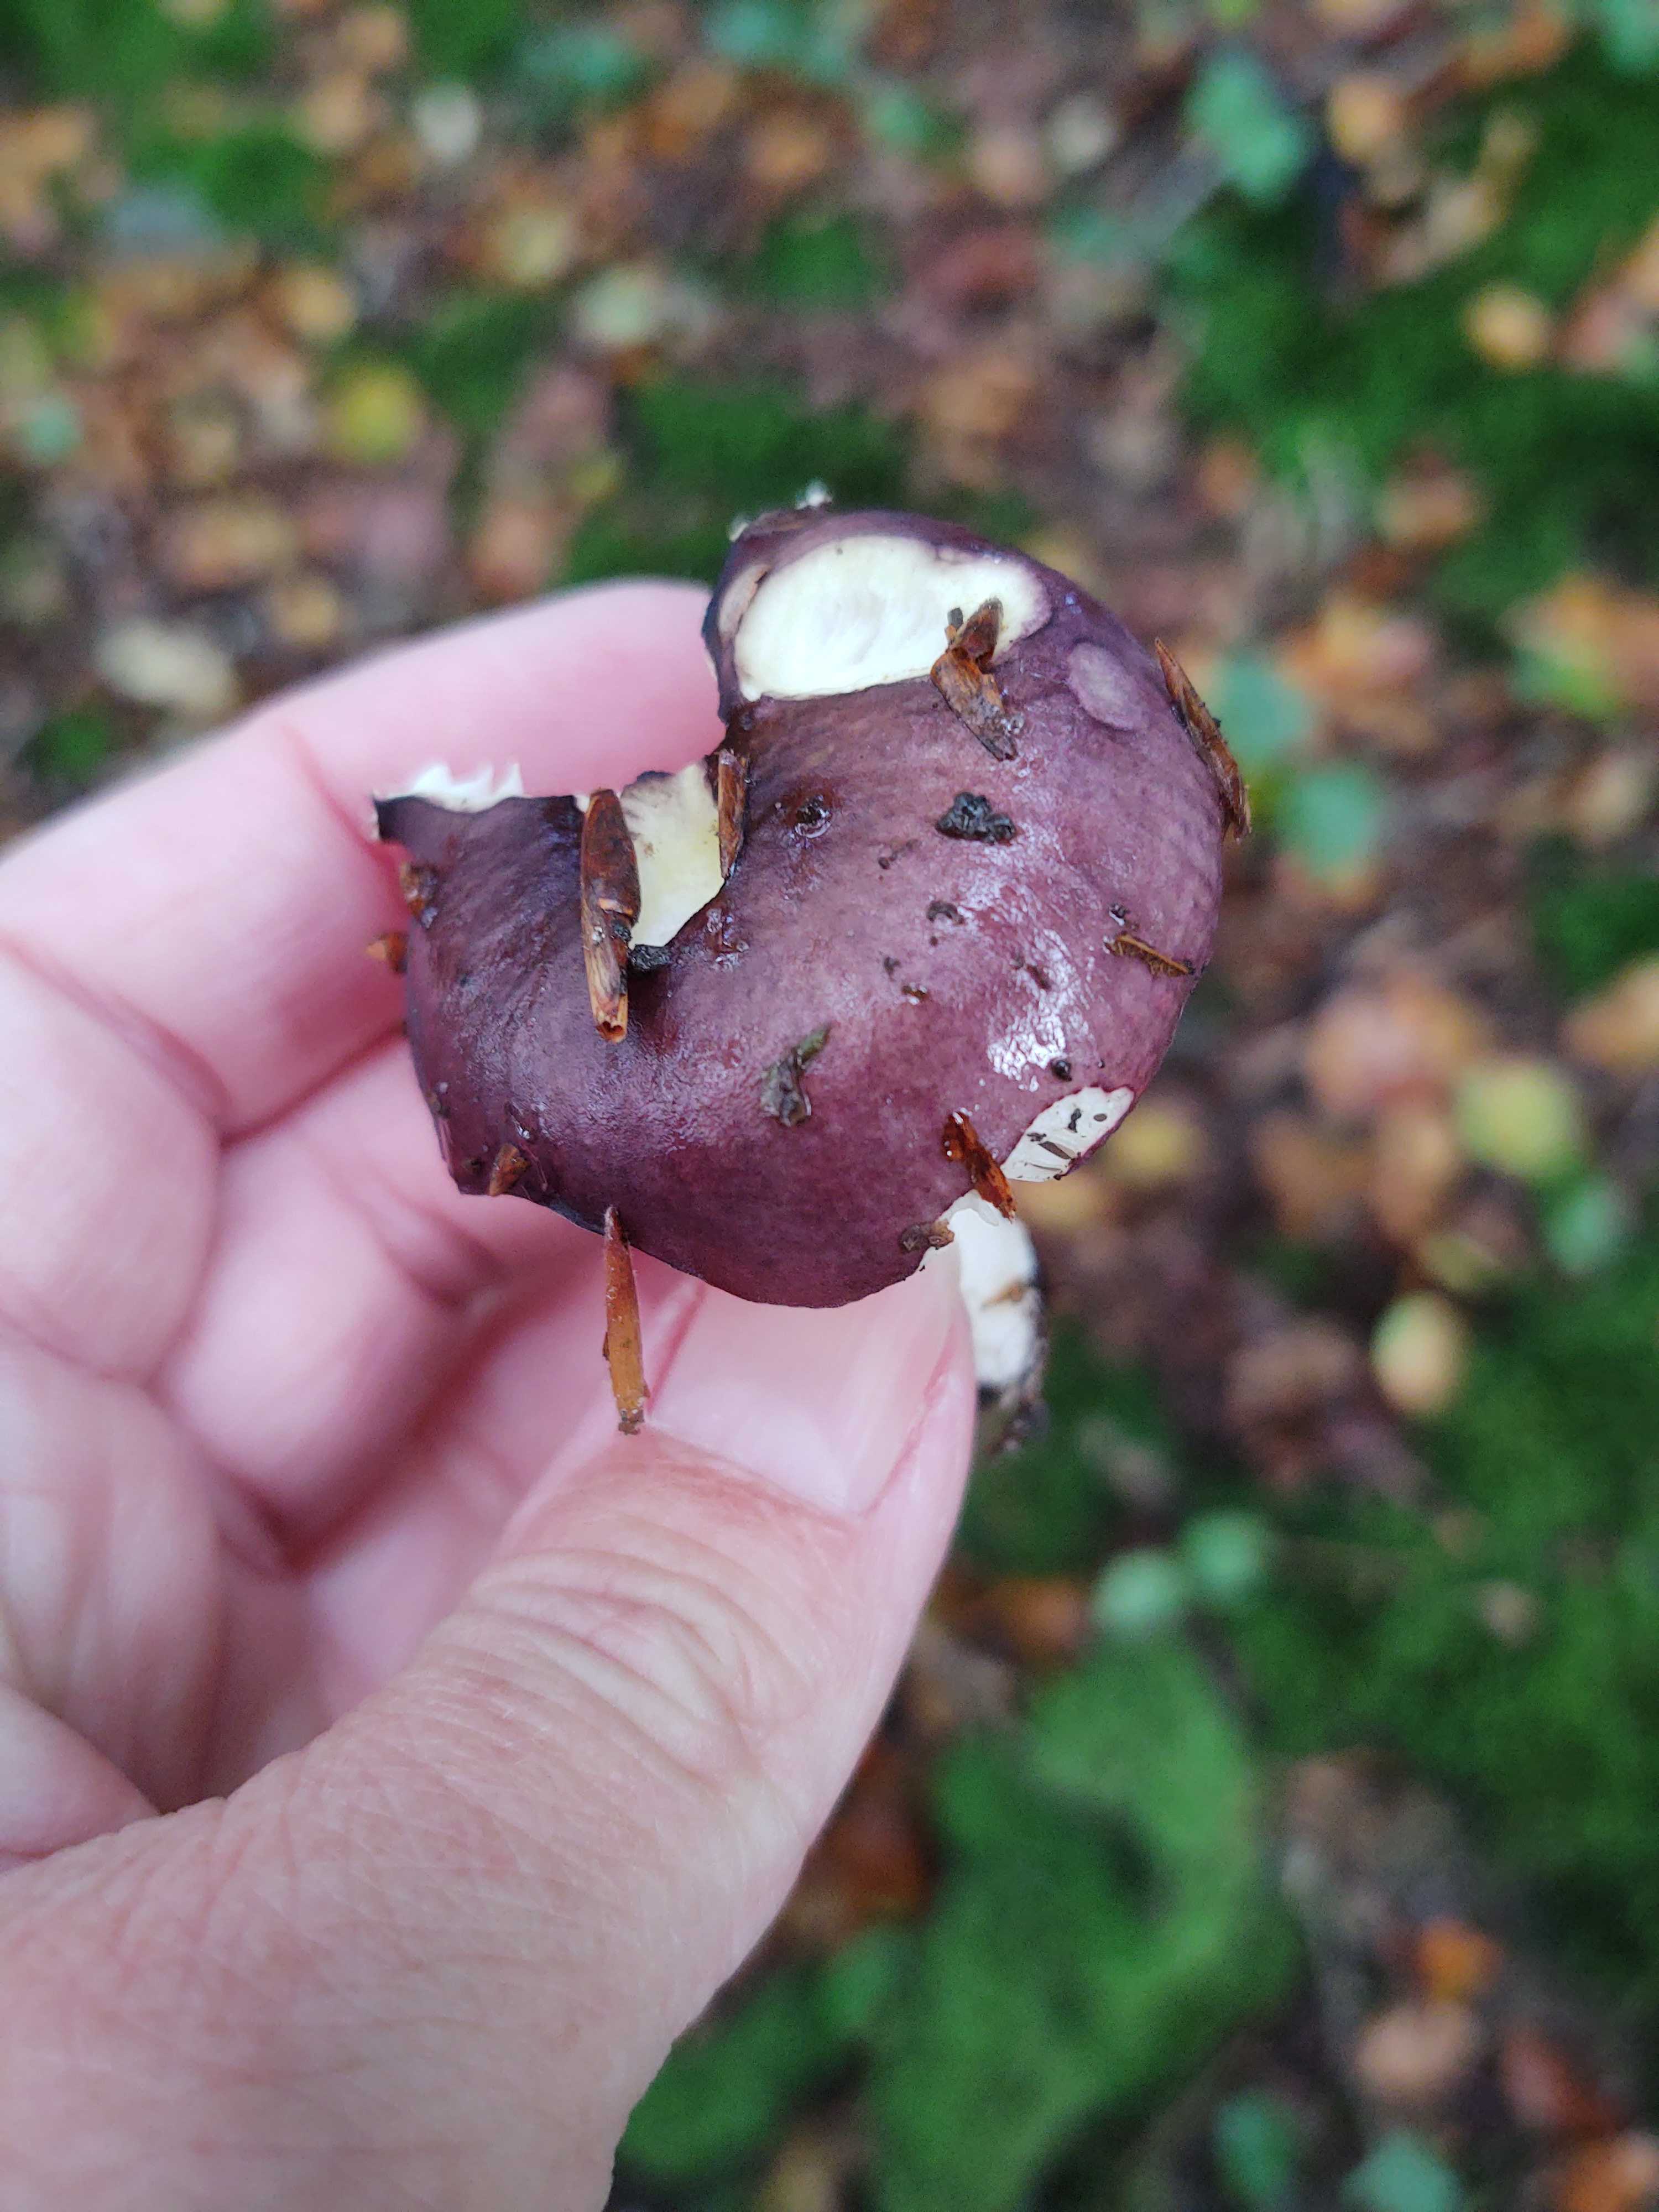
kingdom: Fungi
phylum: Basidiomycota
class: Agaricomycetes
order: Russulales
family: Russulaceae
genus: Russula
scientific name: Russula
